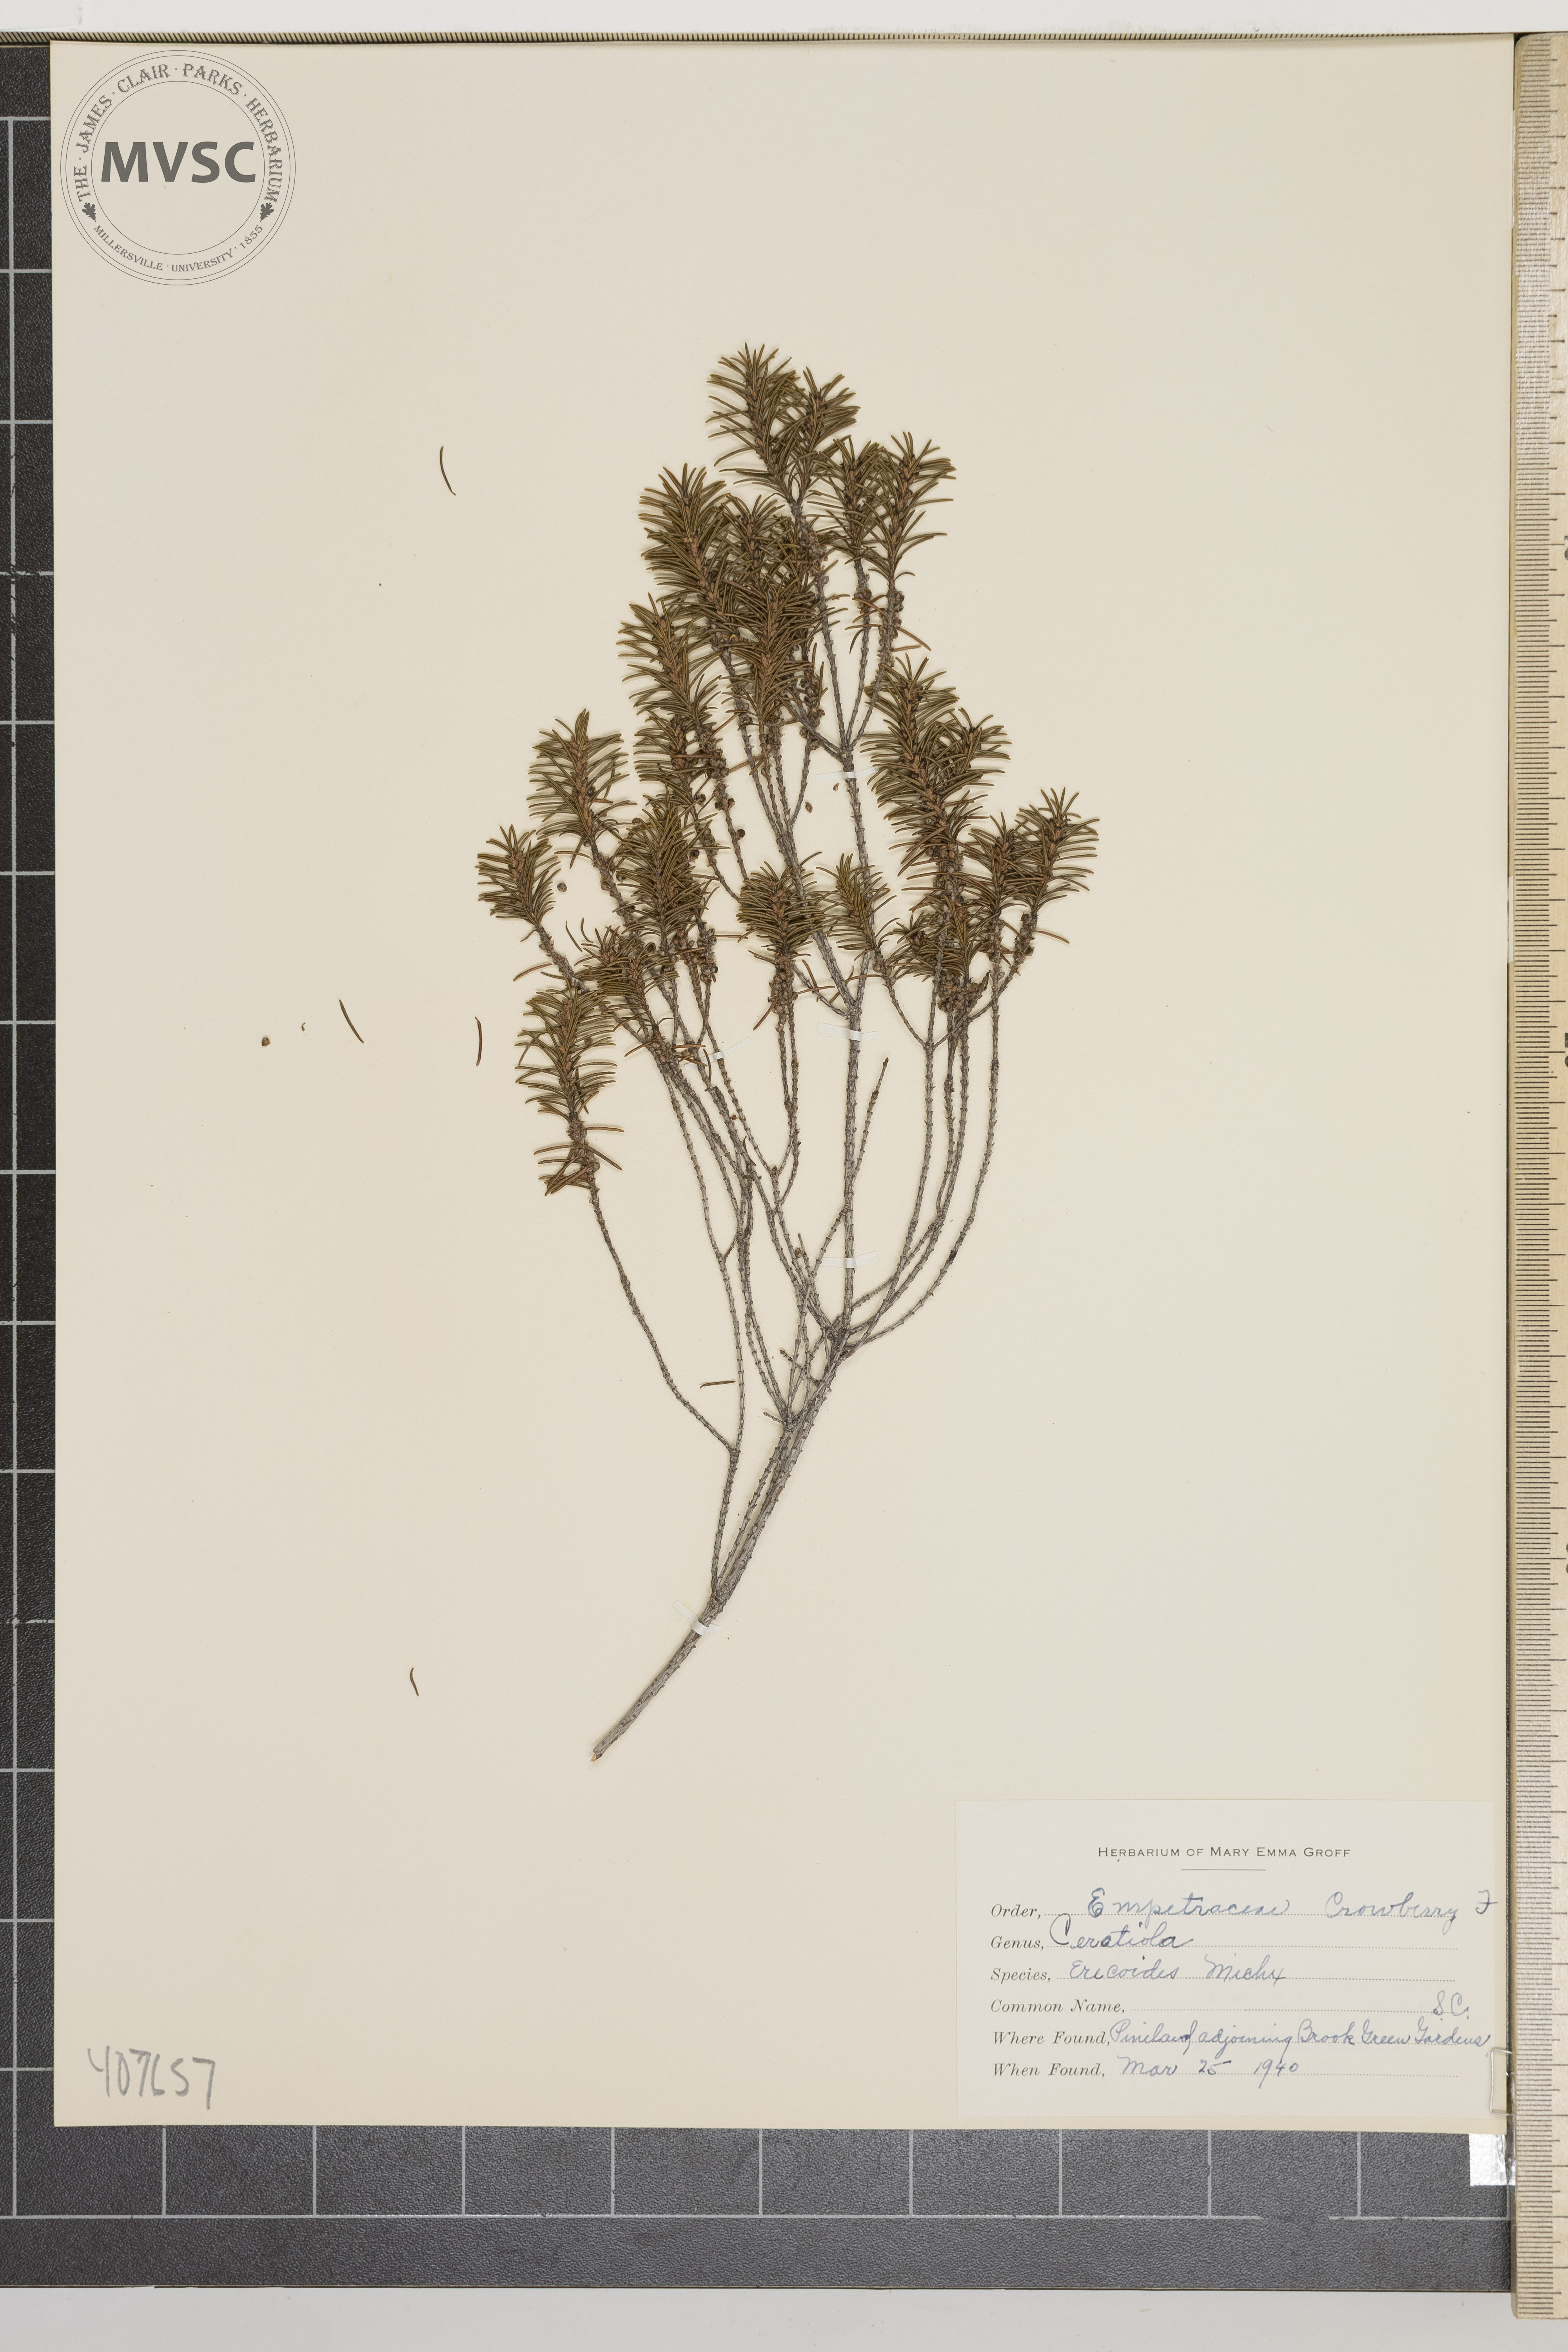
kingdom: Plantae
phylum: Tracheophyta
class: Magnoliopsida
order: Ericales
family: Ericaceae
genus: Ceratiola
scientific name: Ceratiola ericoides
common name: Sandhill-rosemary
